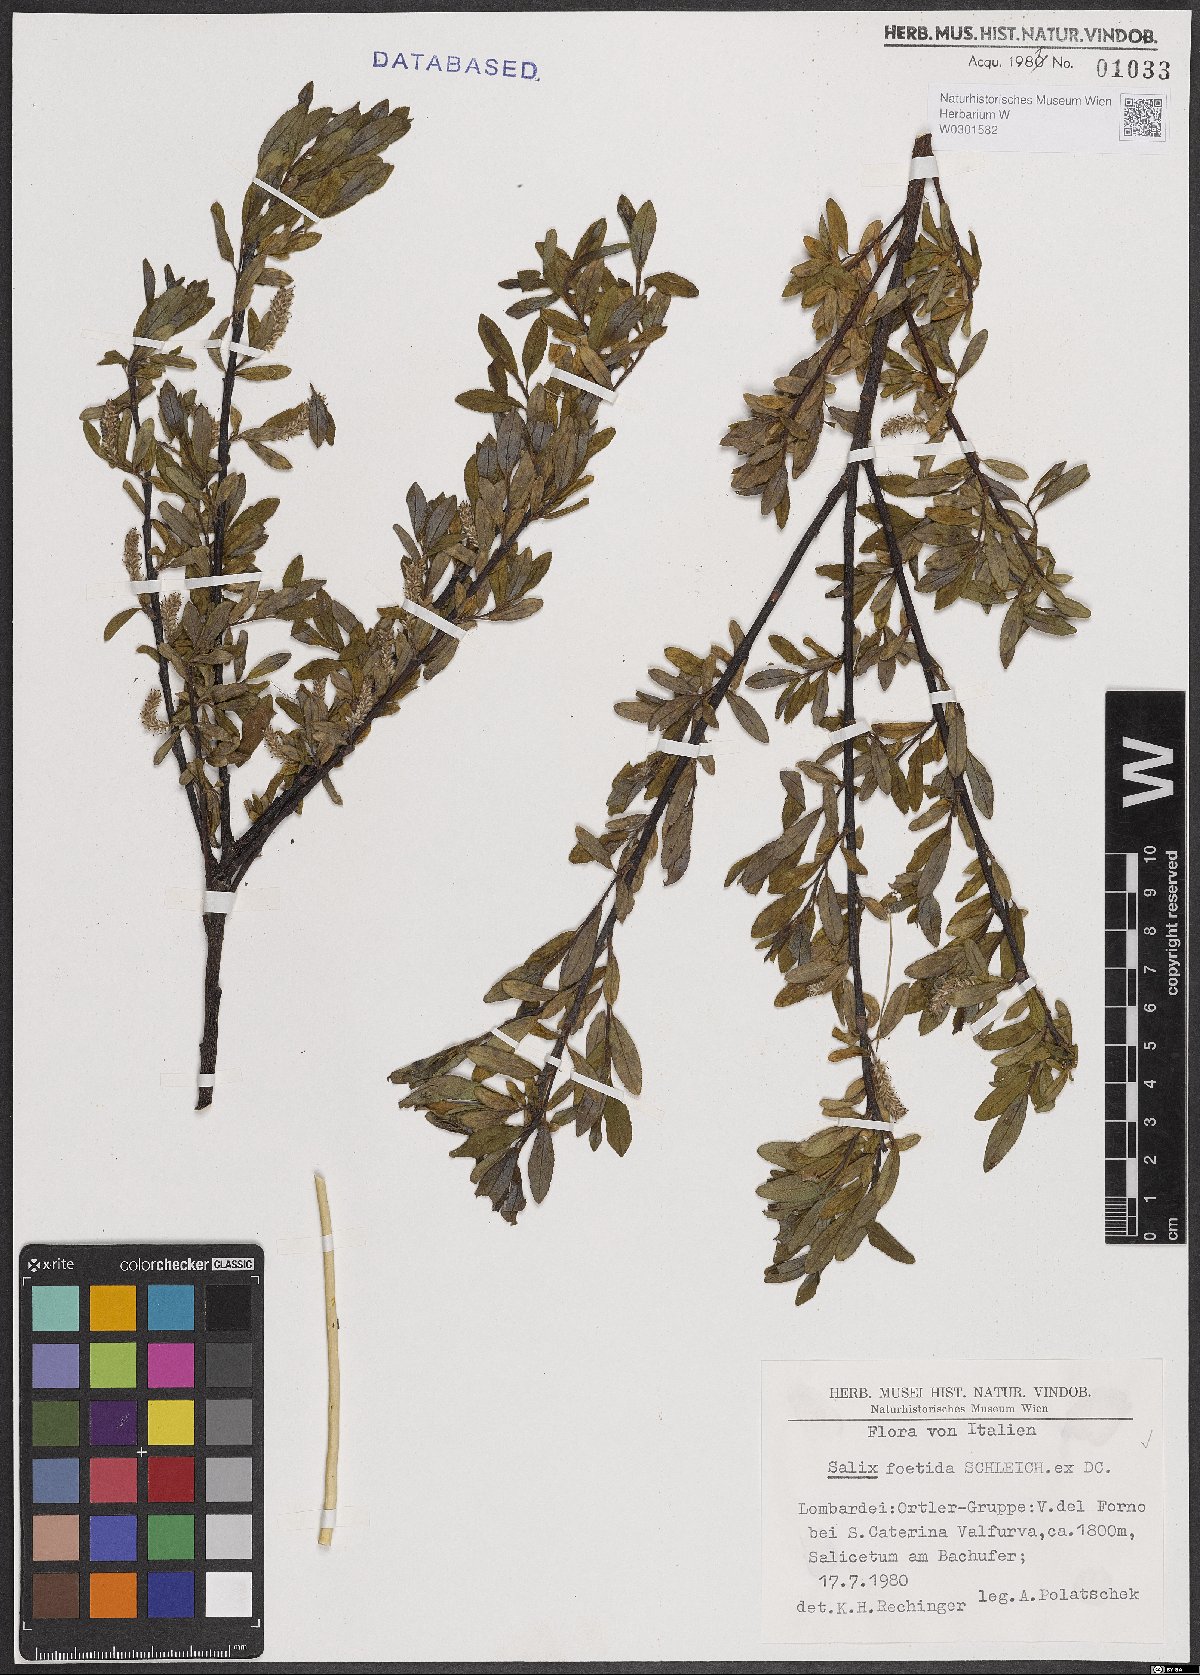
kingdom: Plantae
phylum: Tracheophyta
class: Magnoliopsida
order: Malpighiales
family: Salicaceae
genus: Salix
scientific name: Salix foetida
